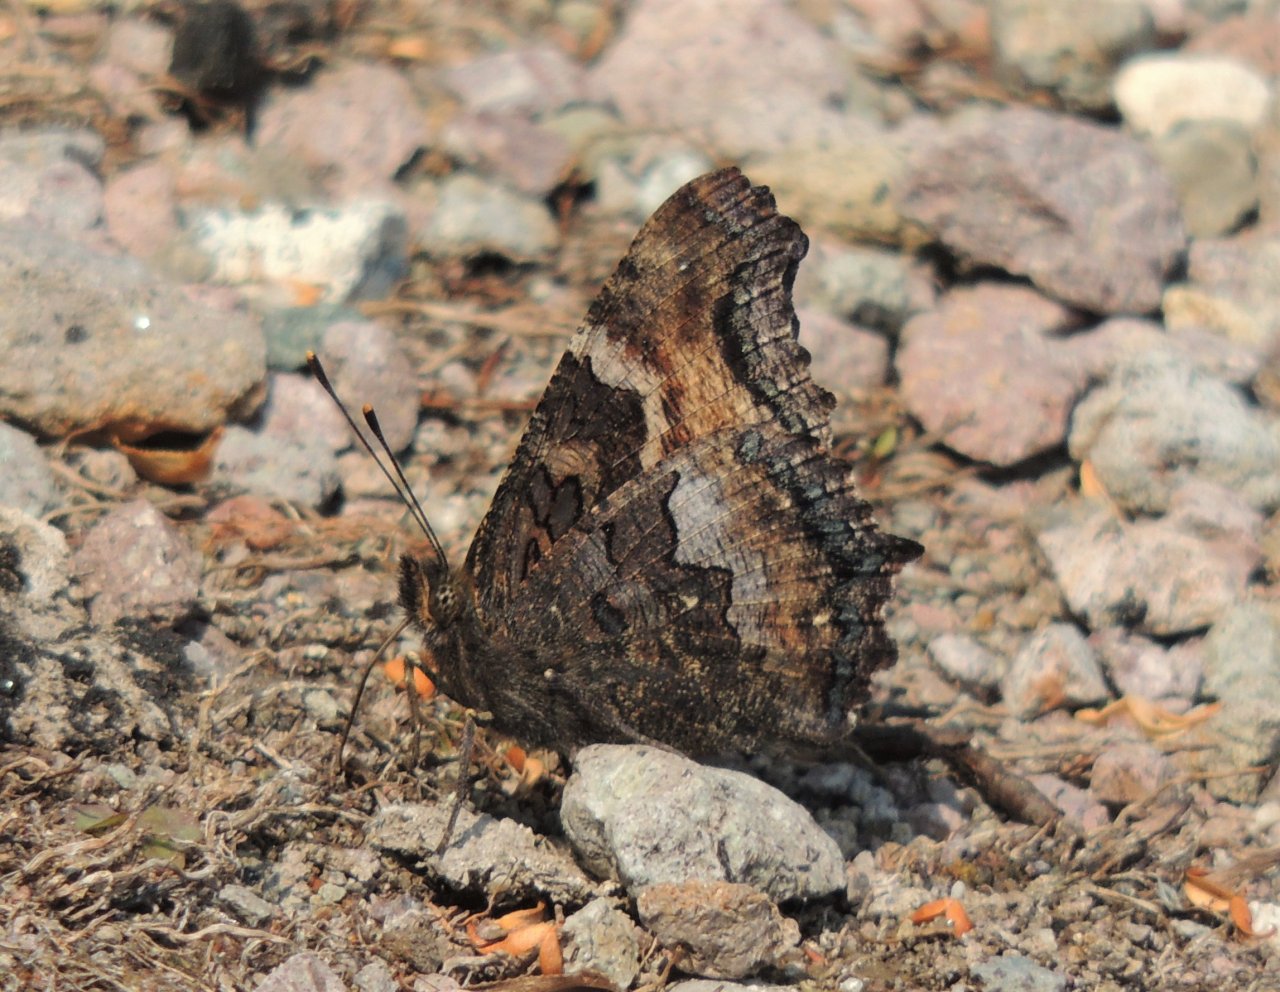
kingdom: Animalia
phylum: Arthropoda
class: Insecta
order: Lepidoptera
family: Nymphalidae
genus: Nymphalis
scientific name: Nymphalis californica
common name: California Tortoiseshell
